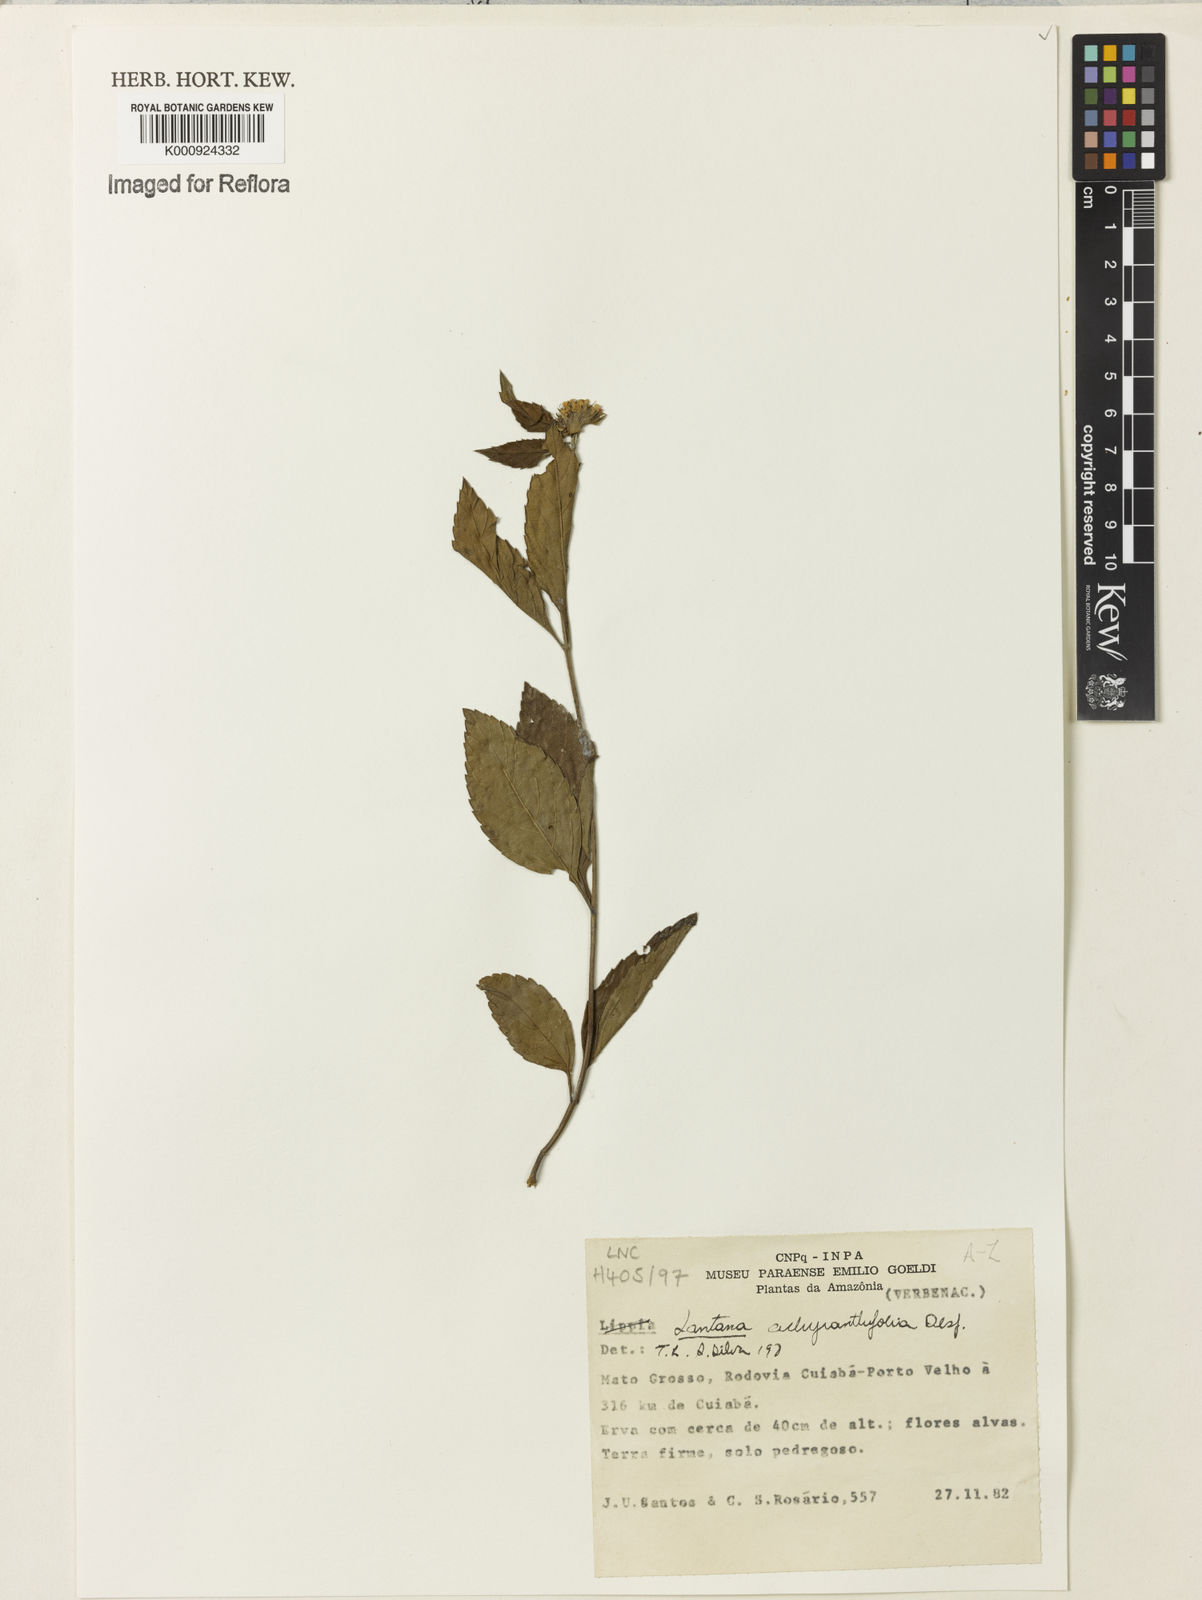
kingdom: Plantae
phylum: Tracheophyta
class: Magnoliopsida
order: Lamiales
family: Verbenaceae
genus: Lantana
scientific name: Lantana achyranthifolia
